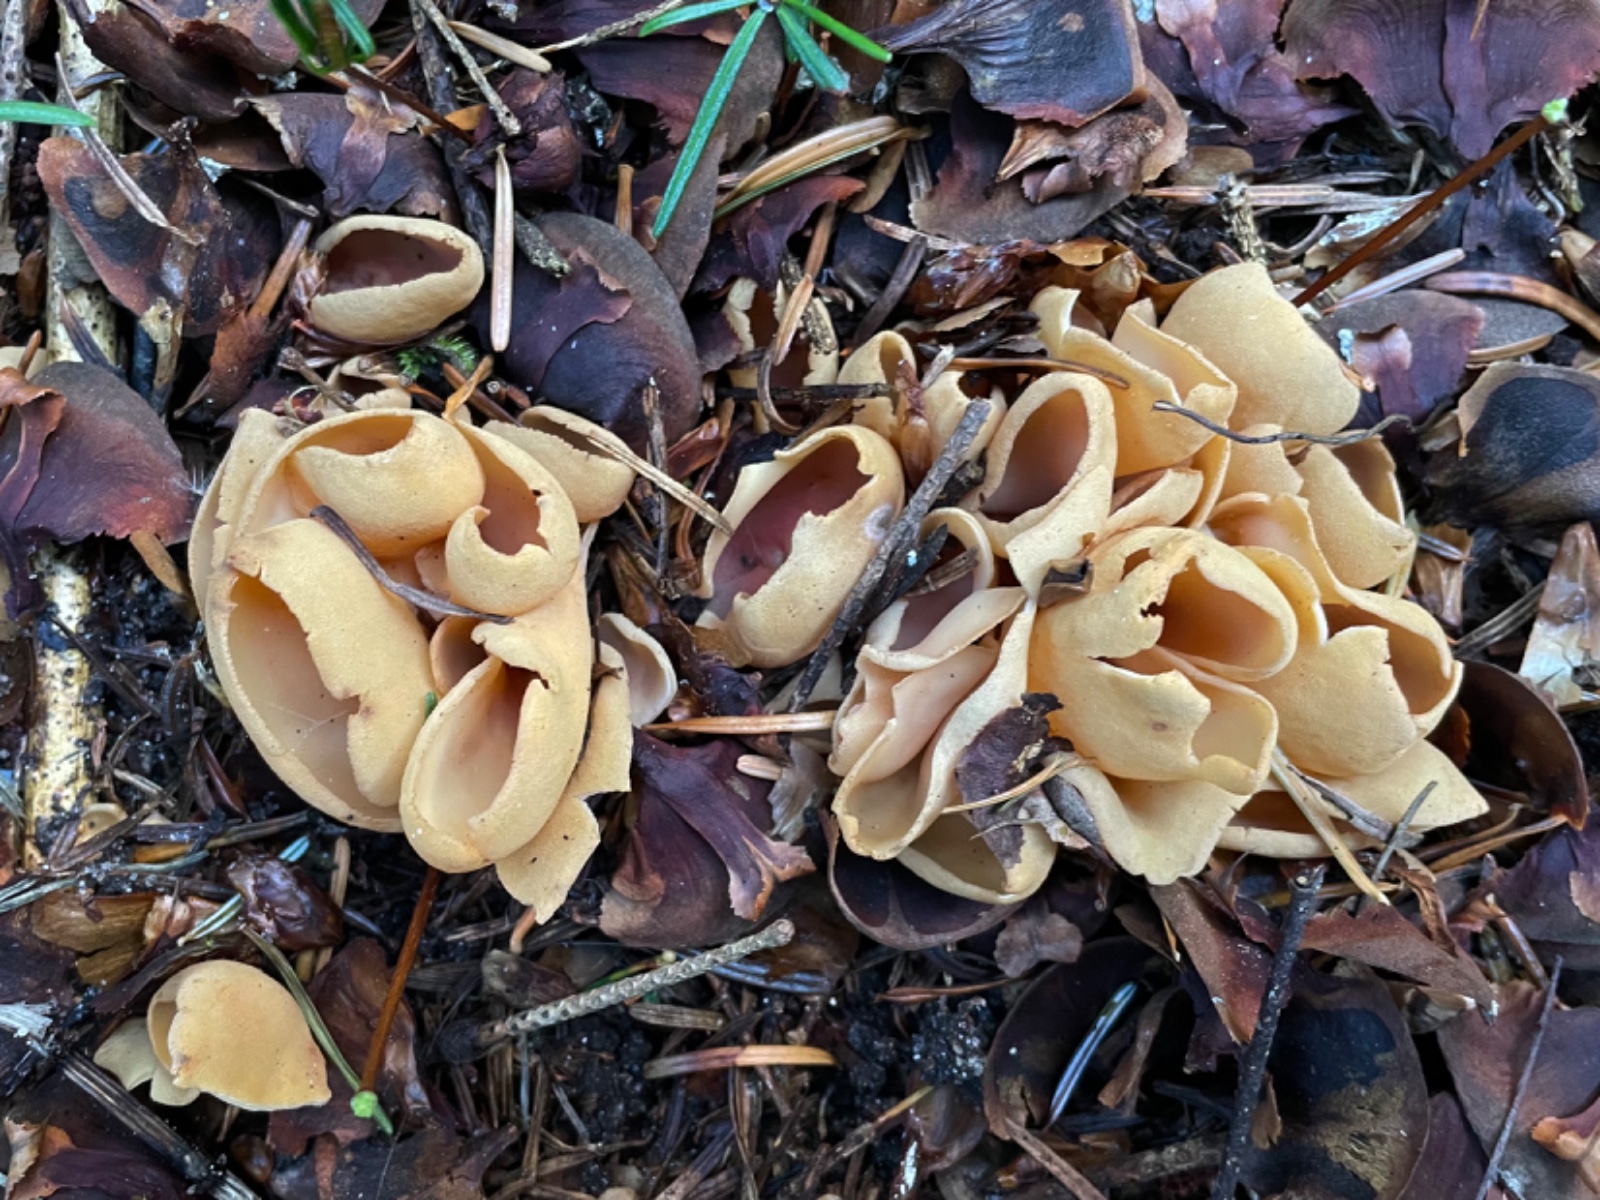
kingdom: Fungi
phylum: Ascomycota
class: Pezizomycetes
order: Pezizales
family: Otideaceae
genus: Otidea
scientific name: Otidea
